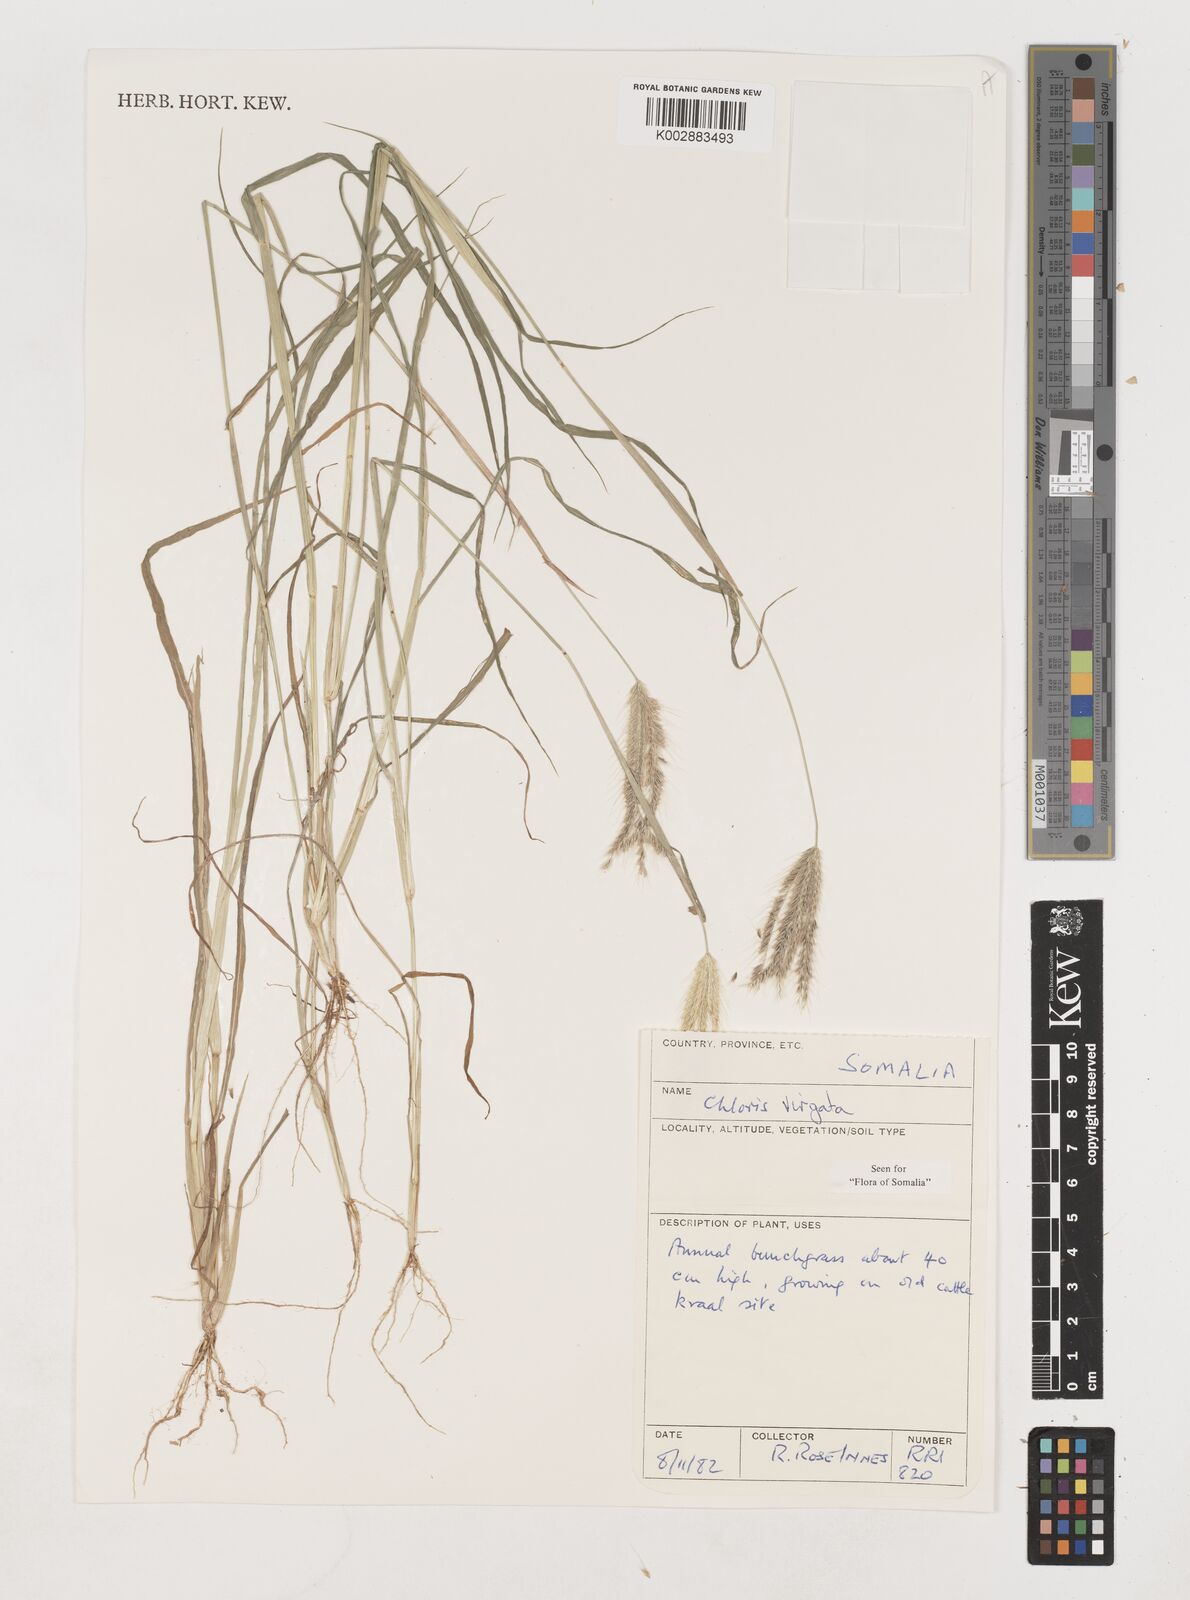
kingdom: Plantae
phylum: Tracheophyta
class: Liliopsida
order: Poales
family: Poaceae
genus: Chloris
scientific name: Chloris virgata
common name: Feathery rhodes-grass
